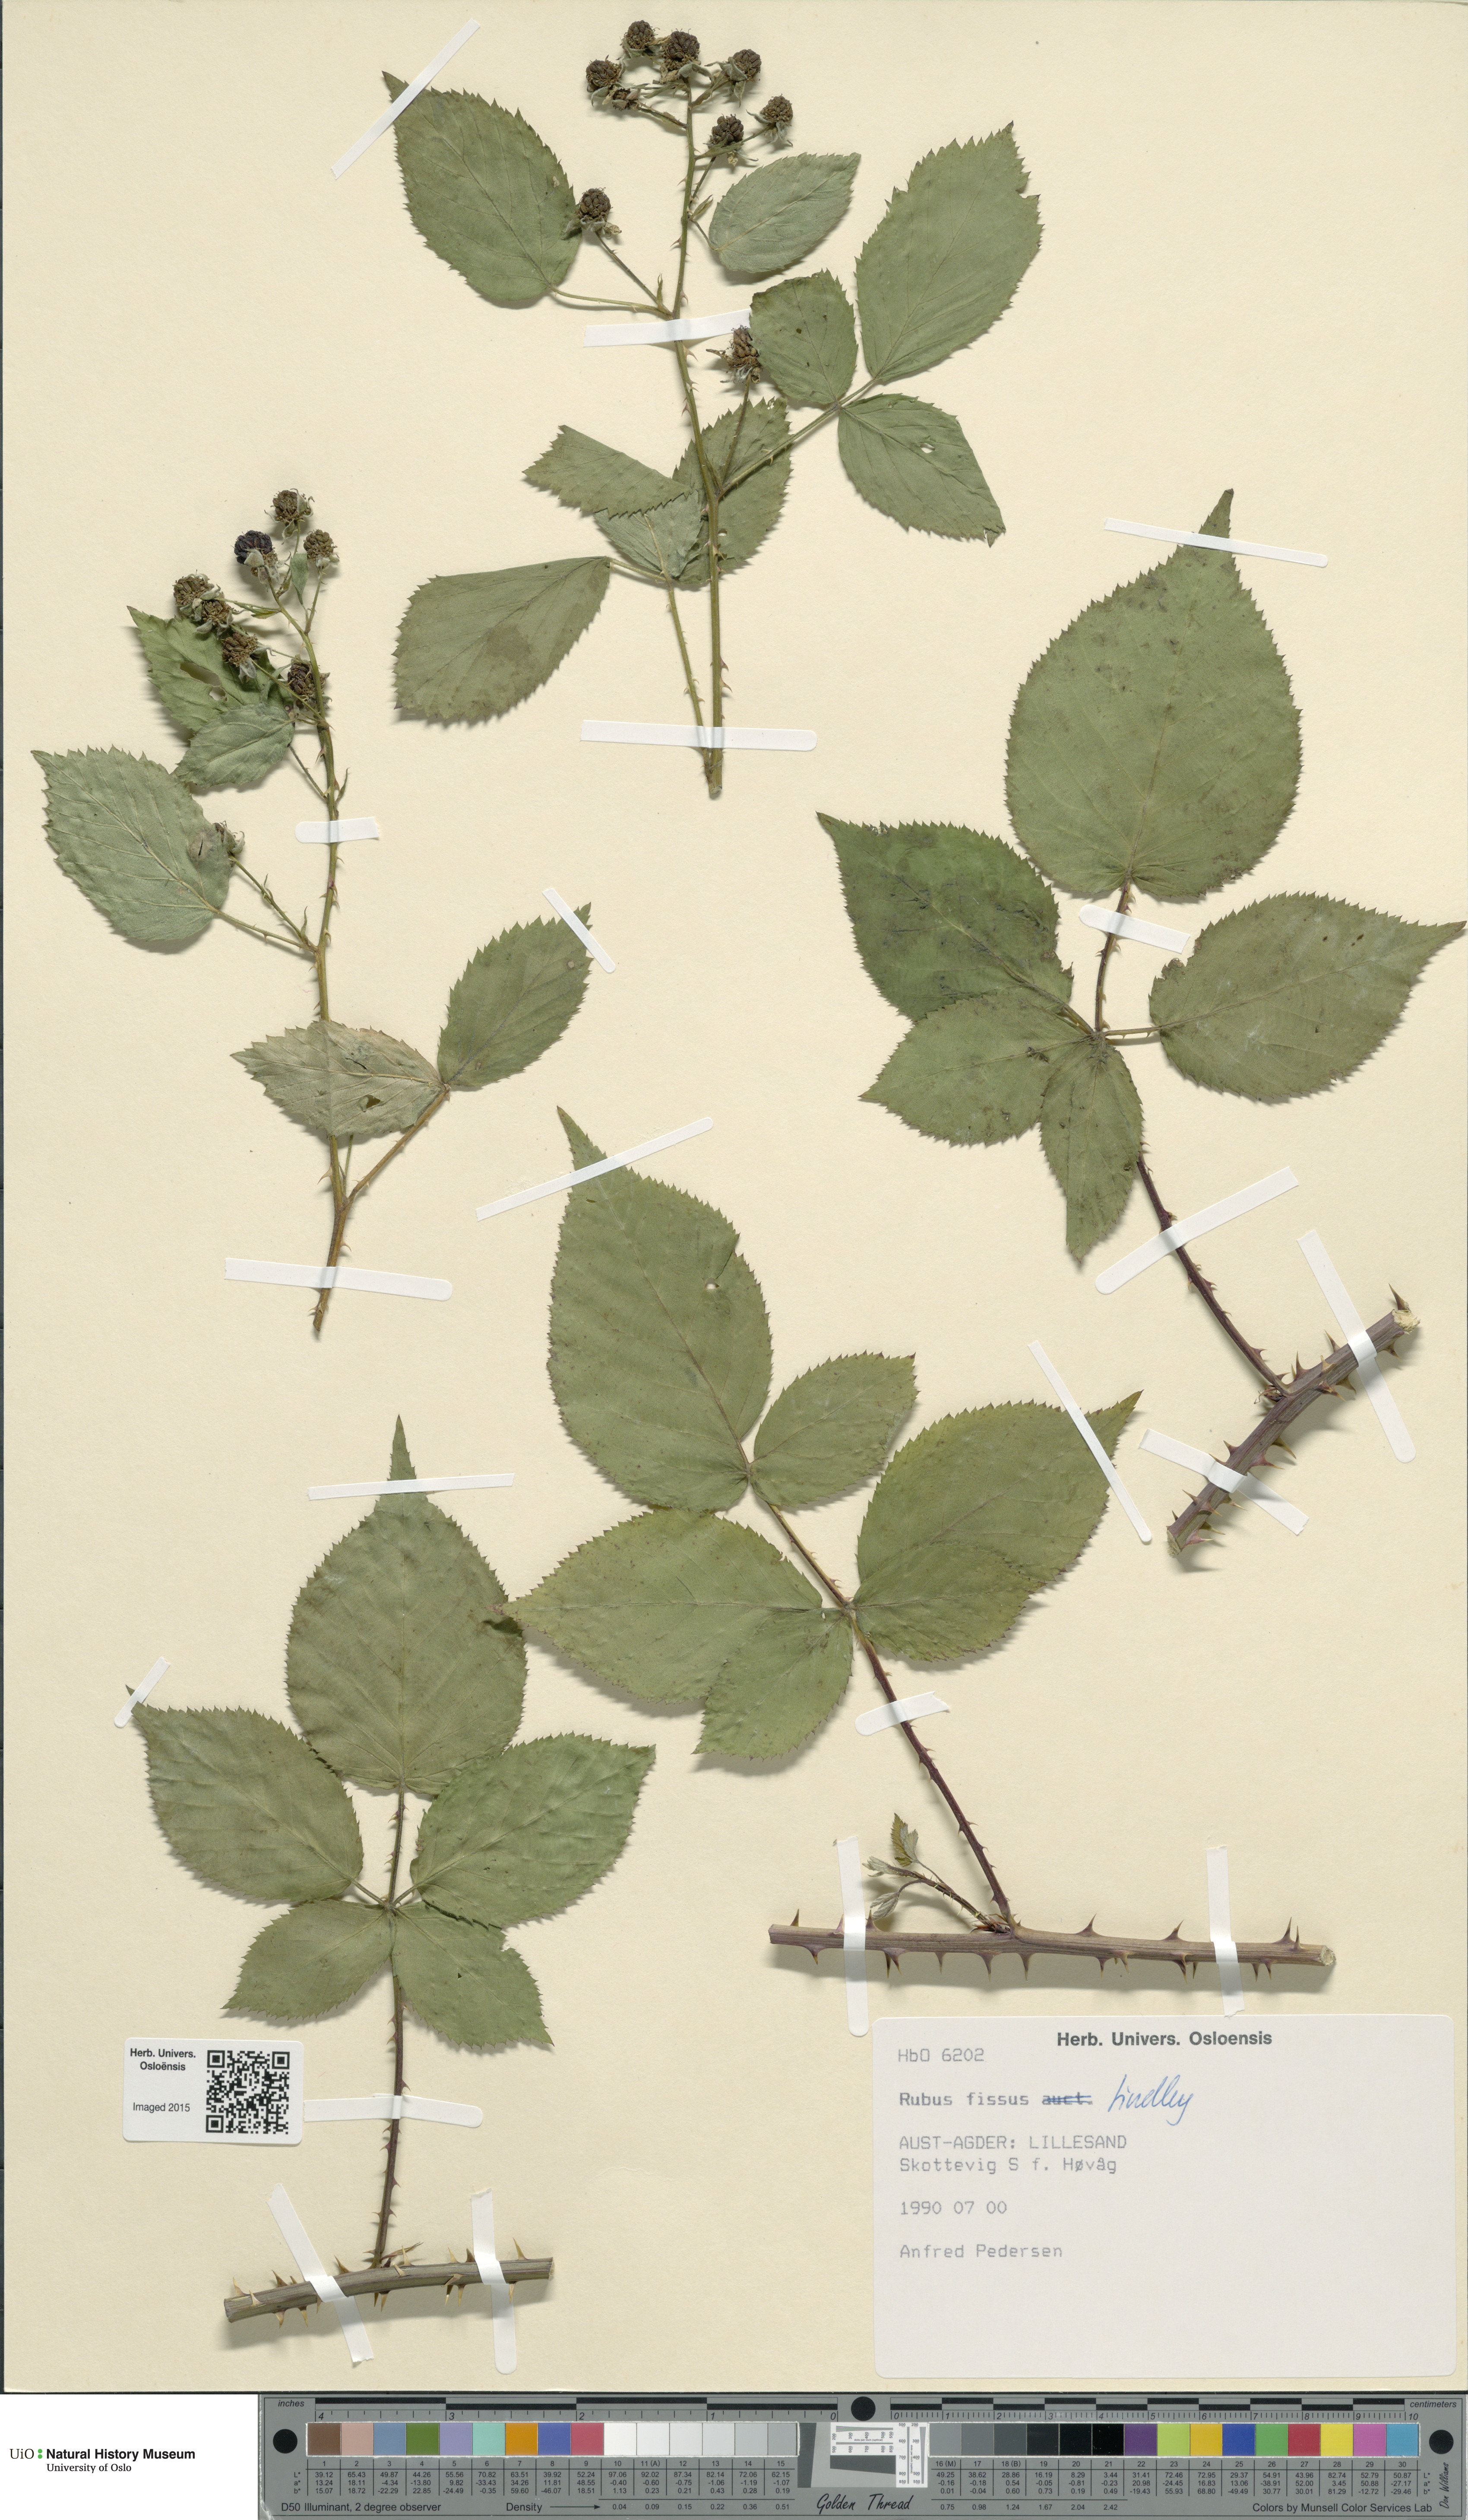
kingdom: Plantae
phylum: Tracheophyta
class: Magnoliopsida
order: Rosales
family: Rosaceae
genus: Rubus
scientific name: Rubus scissus
